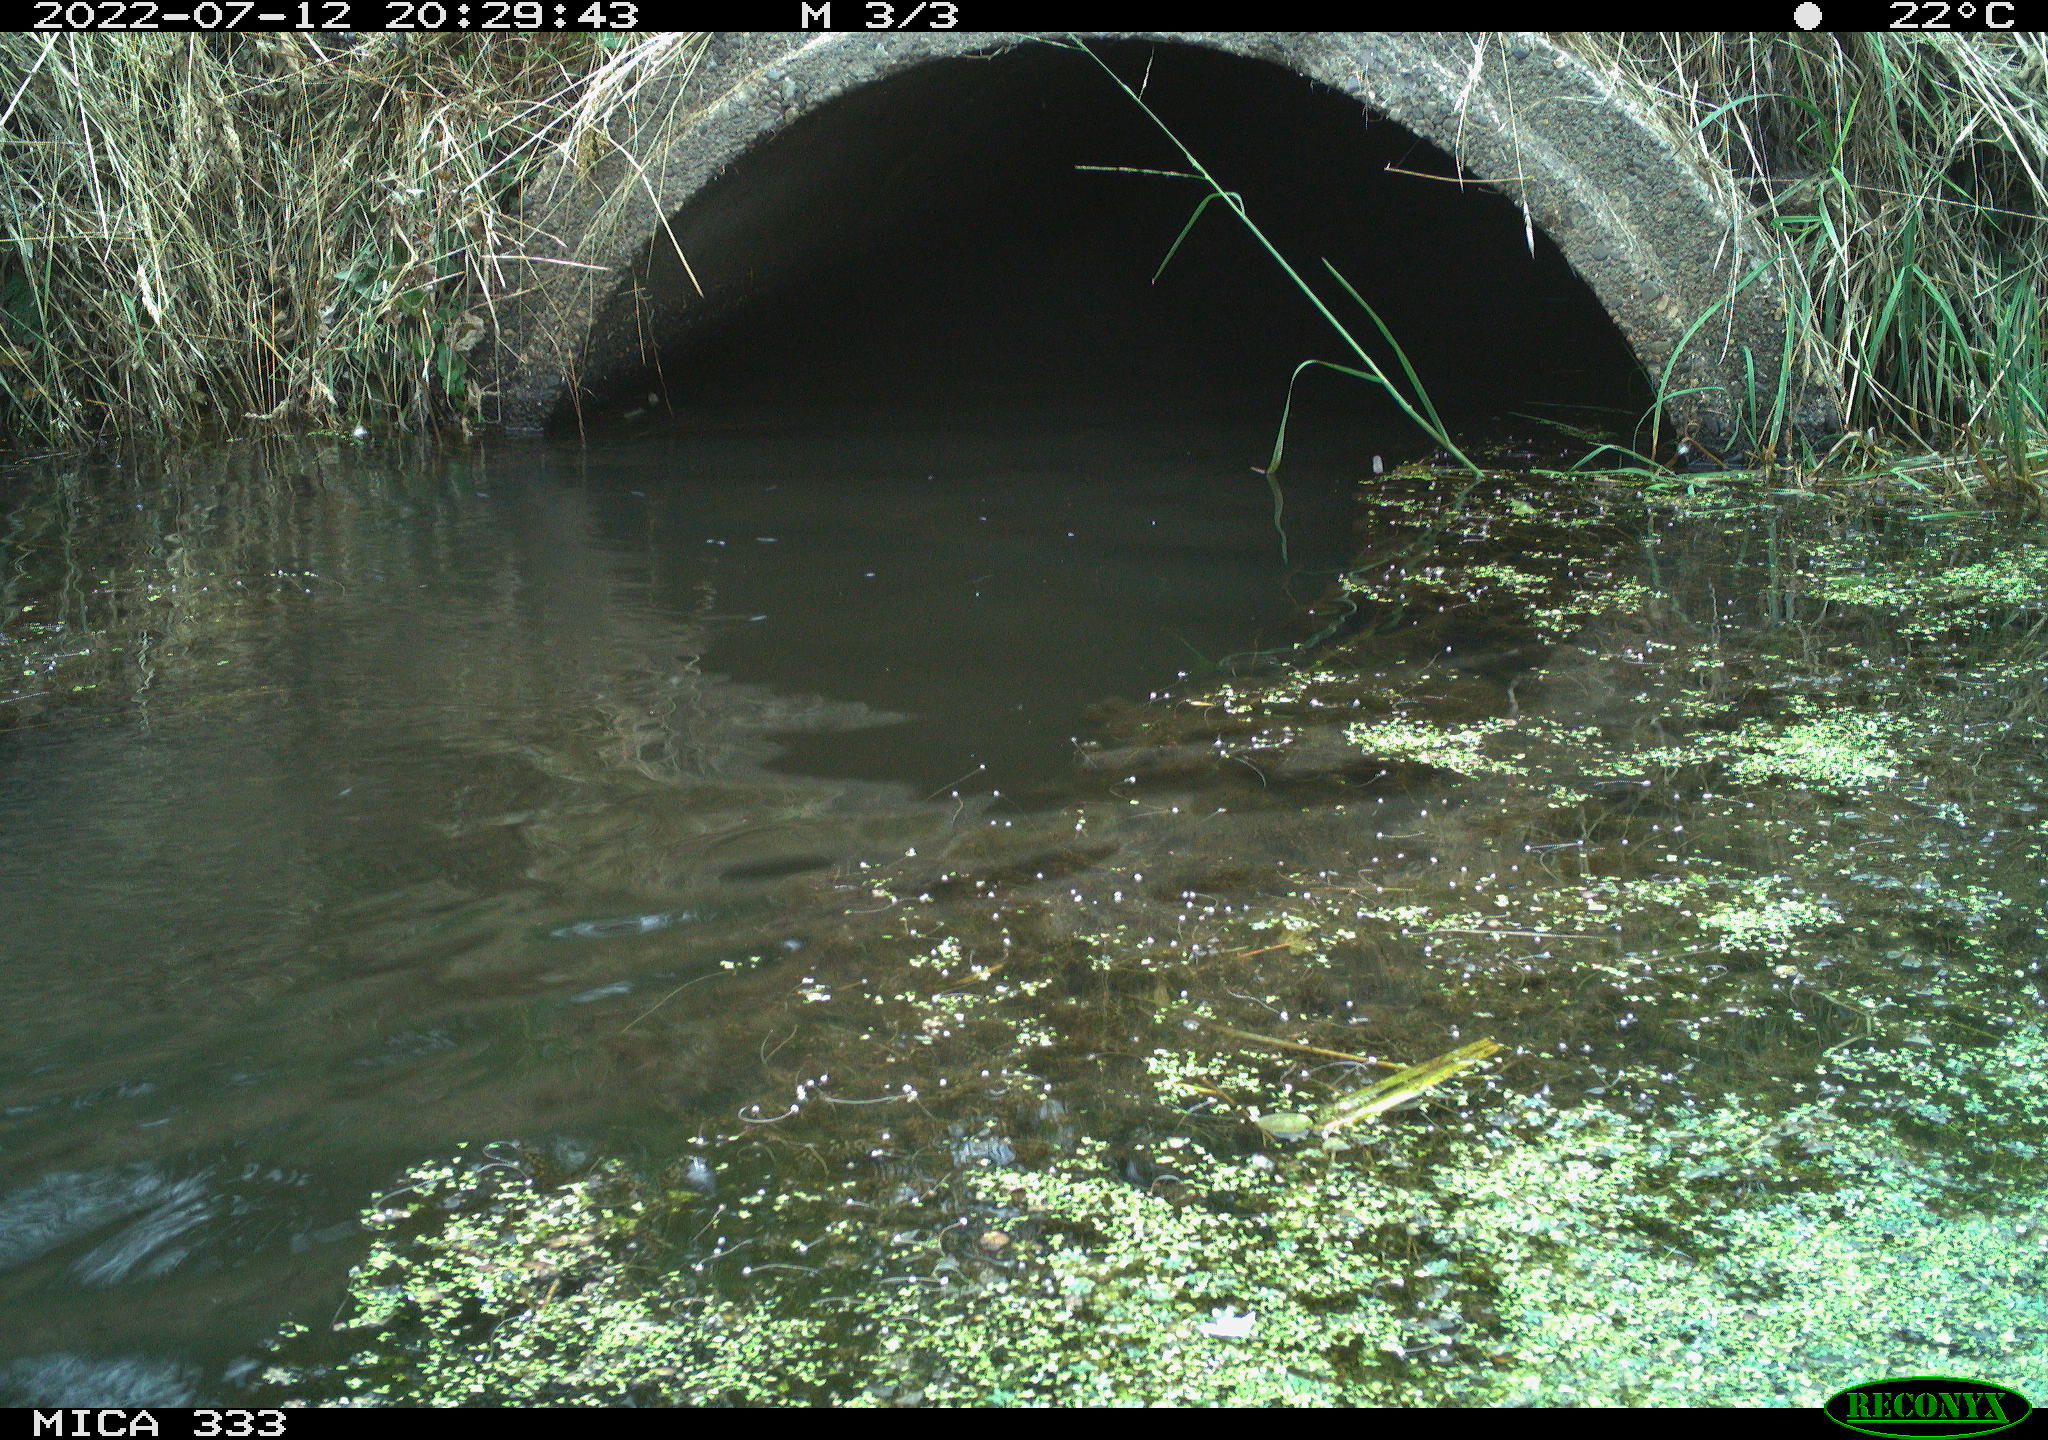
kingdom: Animalia
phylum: Chordata
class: Aves
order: Anseriformes
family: Anatidae
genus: Anas
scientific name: Anas platyrhynchos
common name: Mallard
